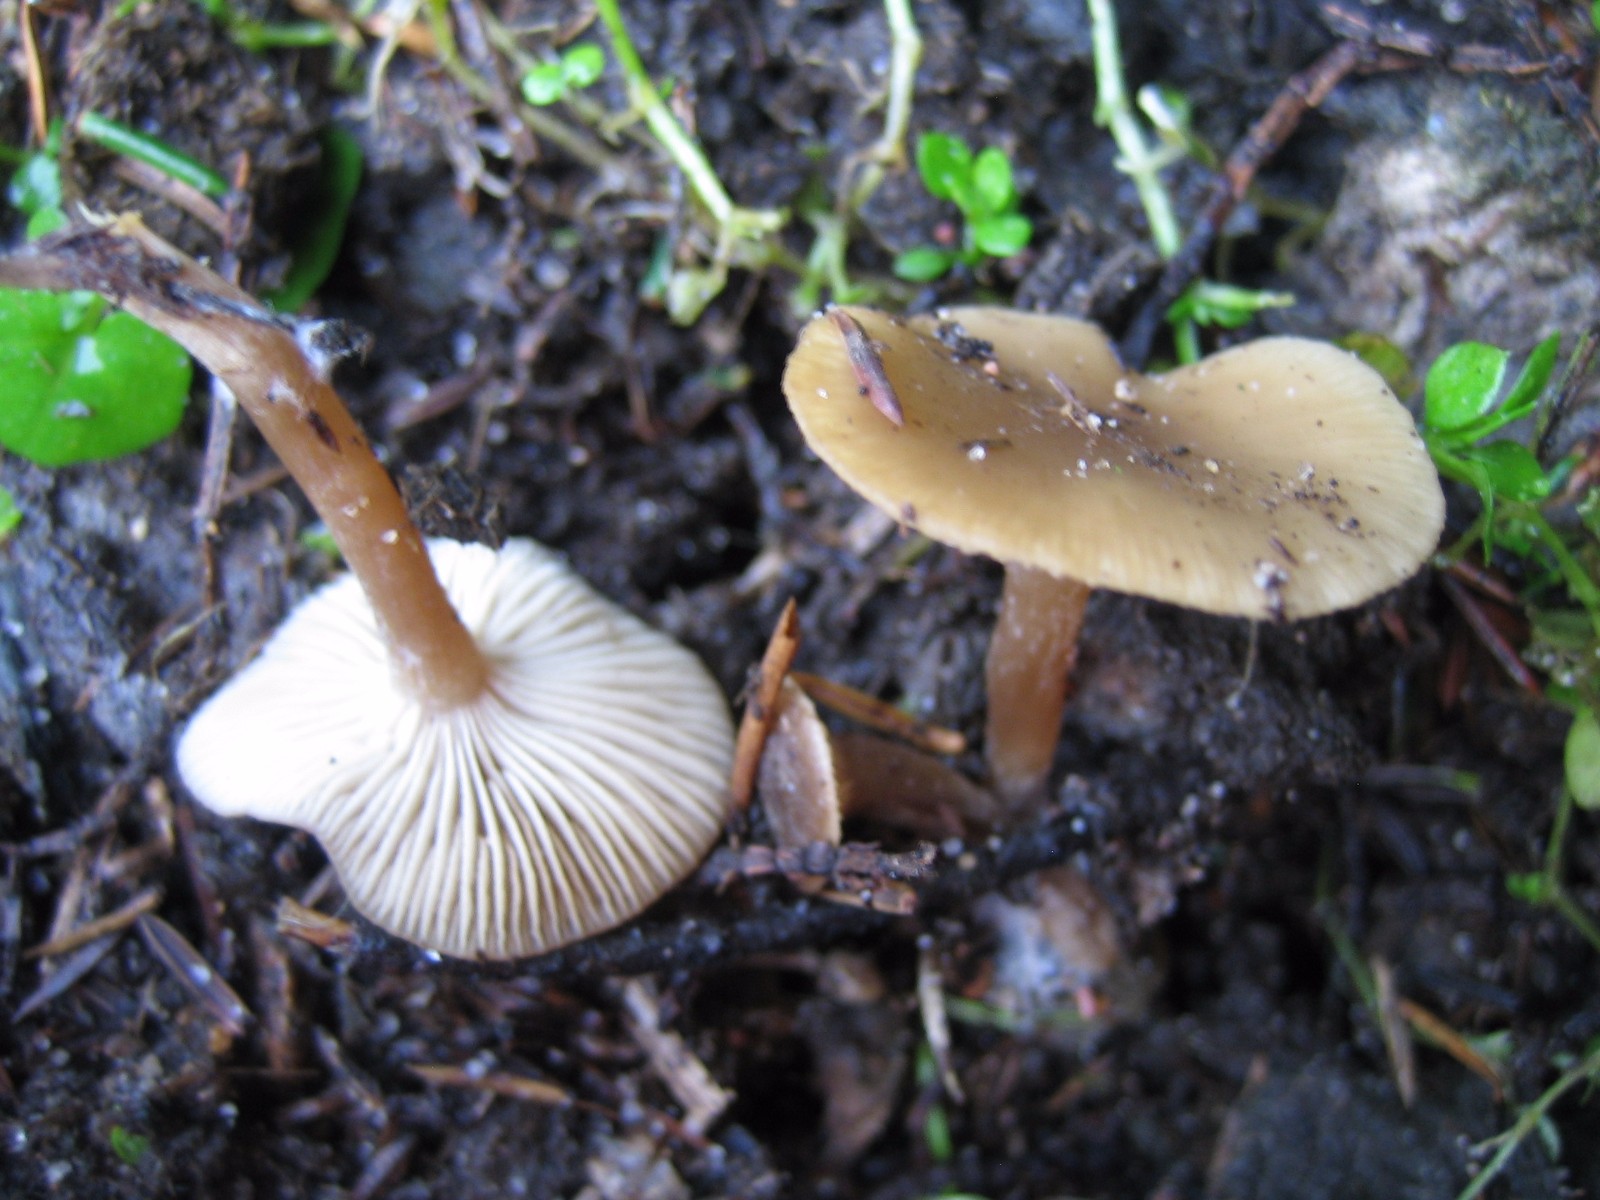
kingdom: Fungi
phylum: Basidiomycota
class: Agaricomycetes
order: Agaricales
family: Tricholomataceae
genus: Clitocybe
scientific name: Clitocybe amarescens
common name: gødnings-tragthat
